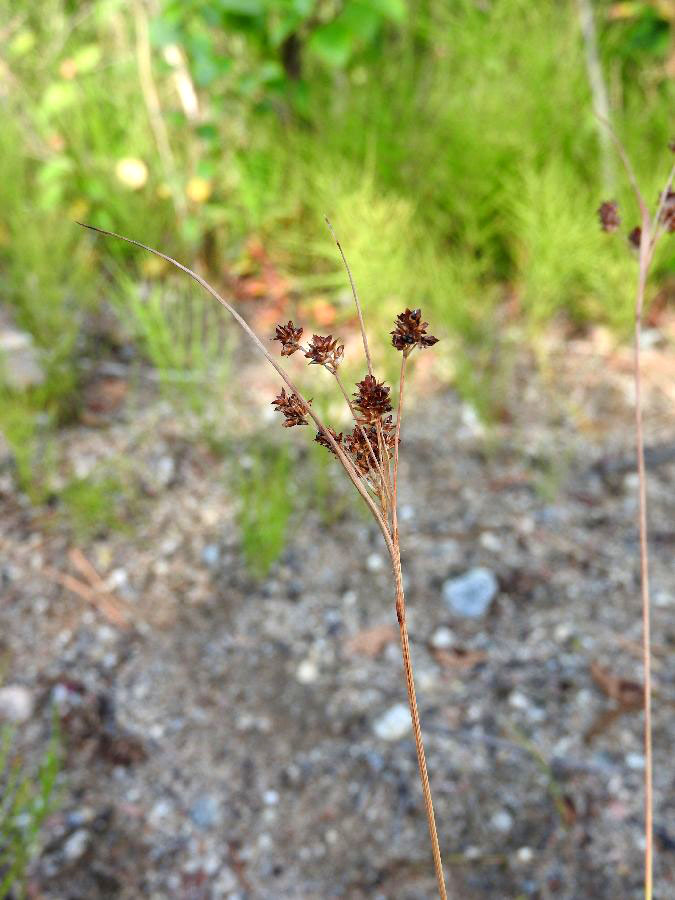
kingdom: Plantae
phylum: Tracheophyta
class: Liliopsida
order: Poales
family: Juncaceae
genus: Luzula
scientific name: Luzula pallescens
